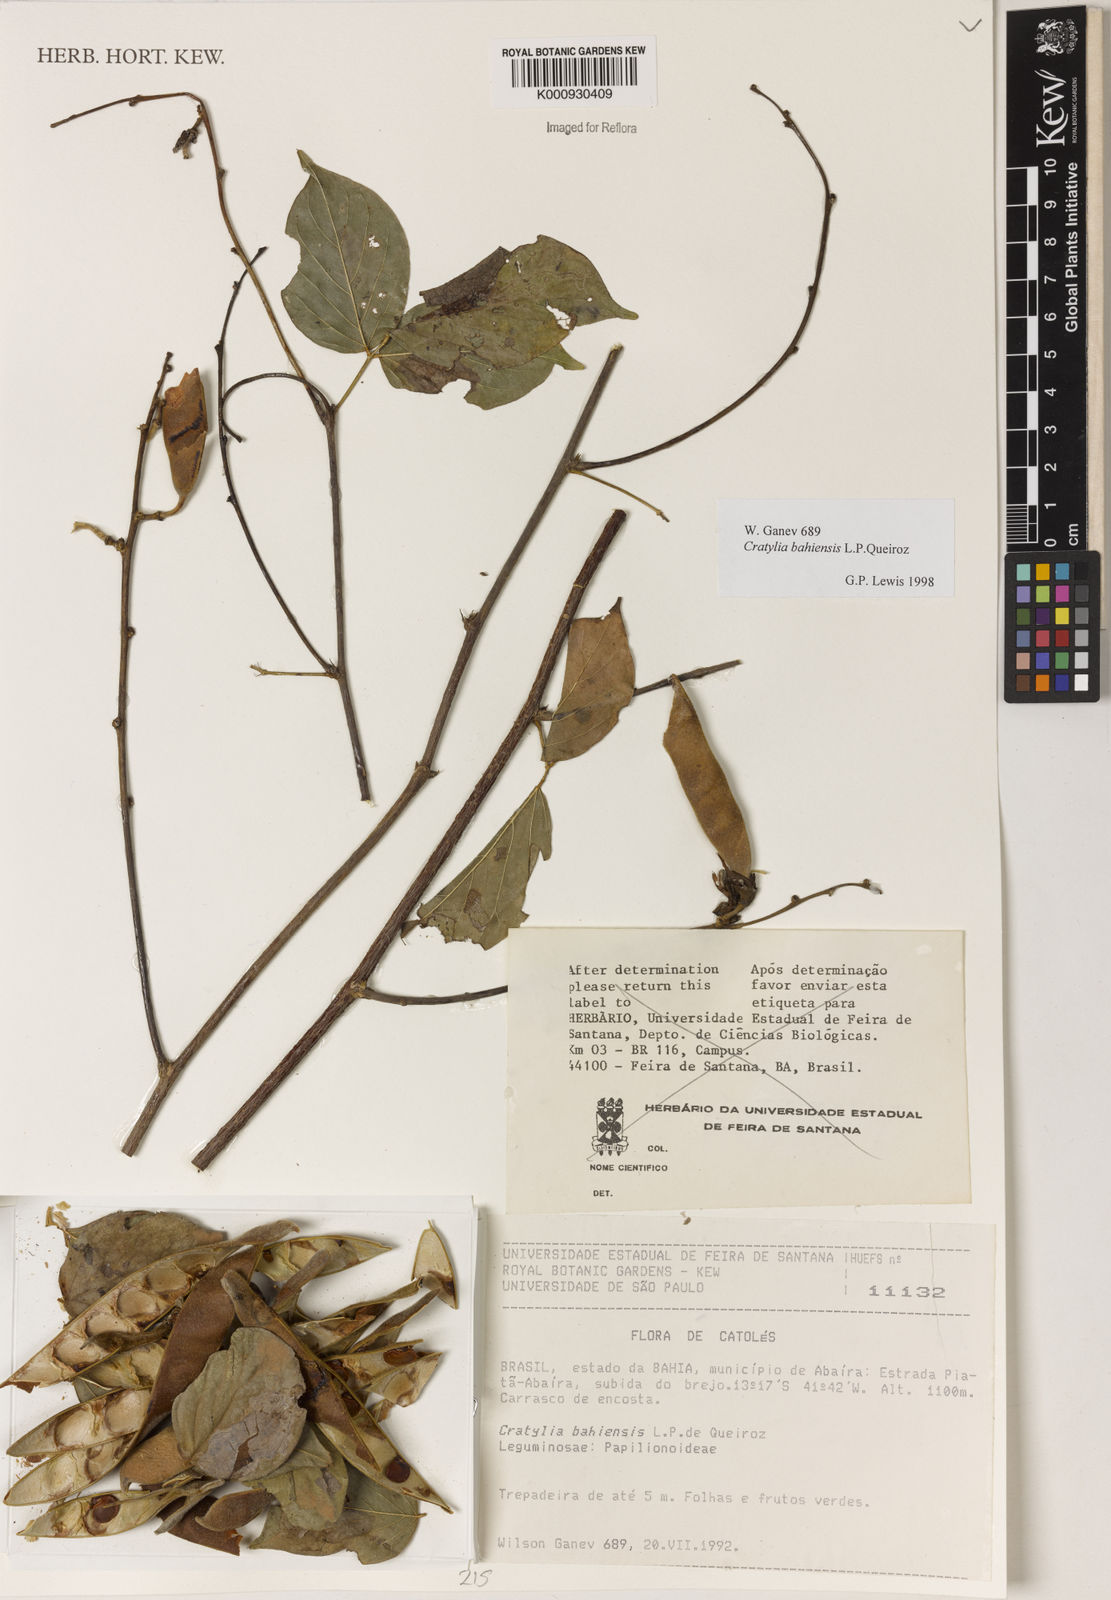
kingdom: Plantae
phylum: Tracheophyta
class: Magnoliopsida
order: Fabales
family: Fabaceae
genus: Cratylia
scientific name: Cratylia bahiensis
